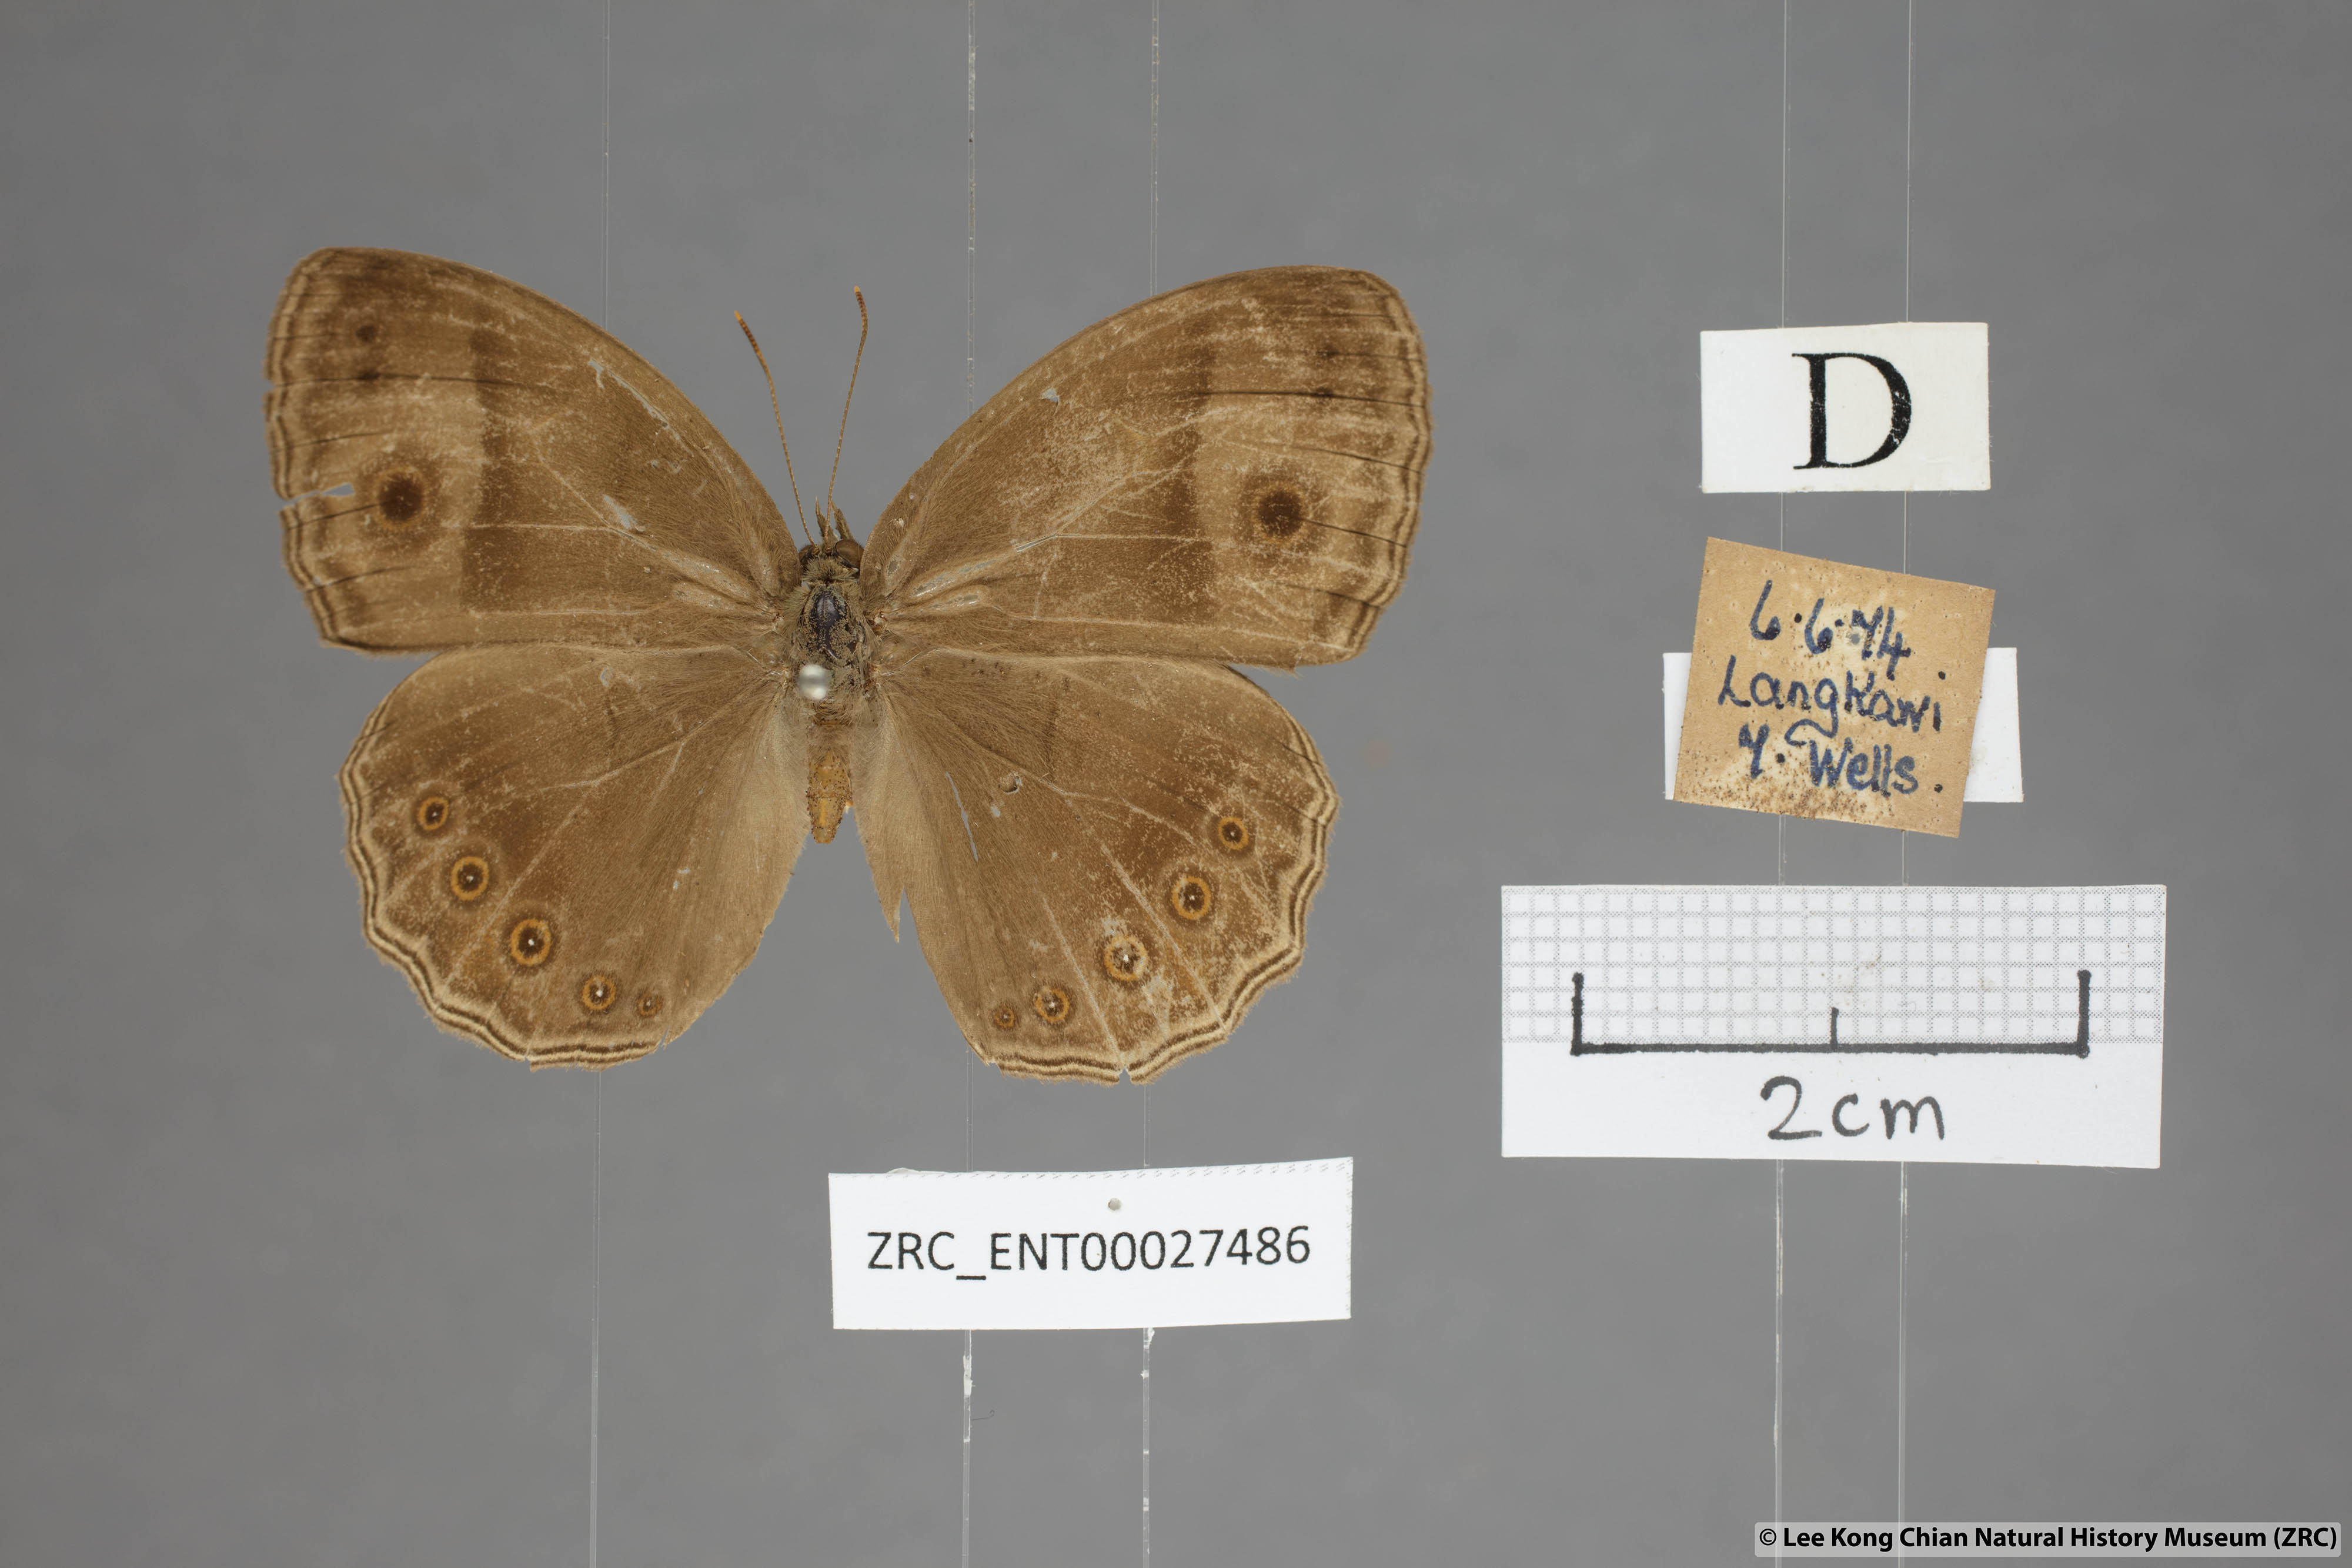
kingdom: Animalia
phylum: Arthropoda
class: Insecta
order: Lepidoptera
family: Nymphalidae
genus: Mycalesis
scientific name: Mycalesis fuscum
